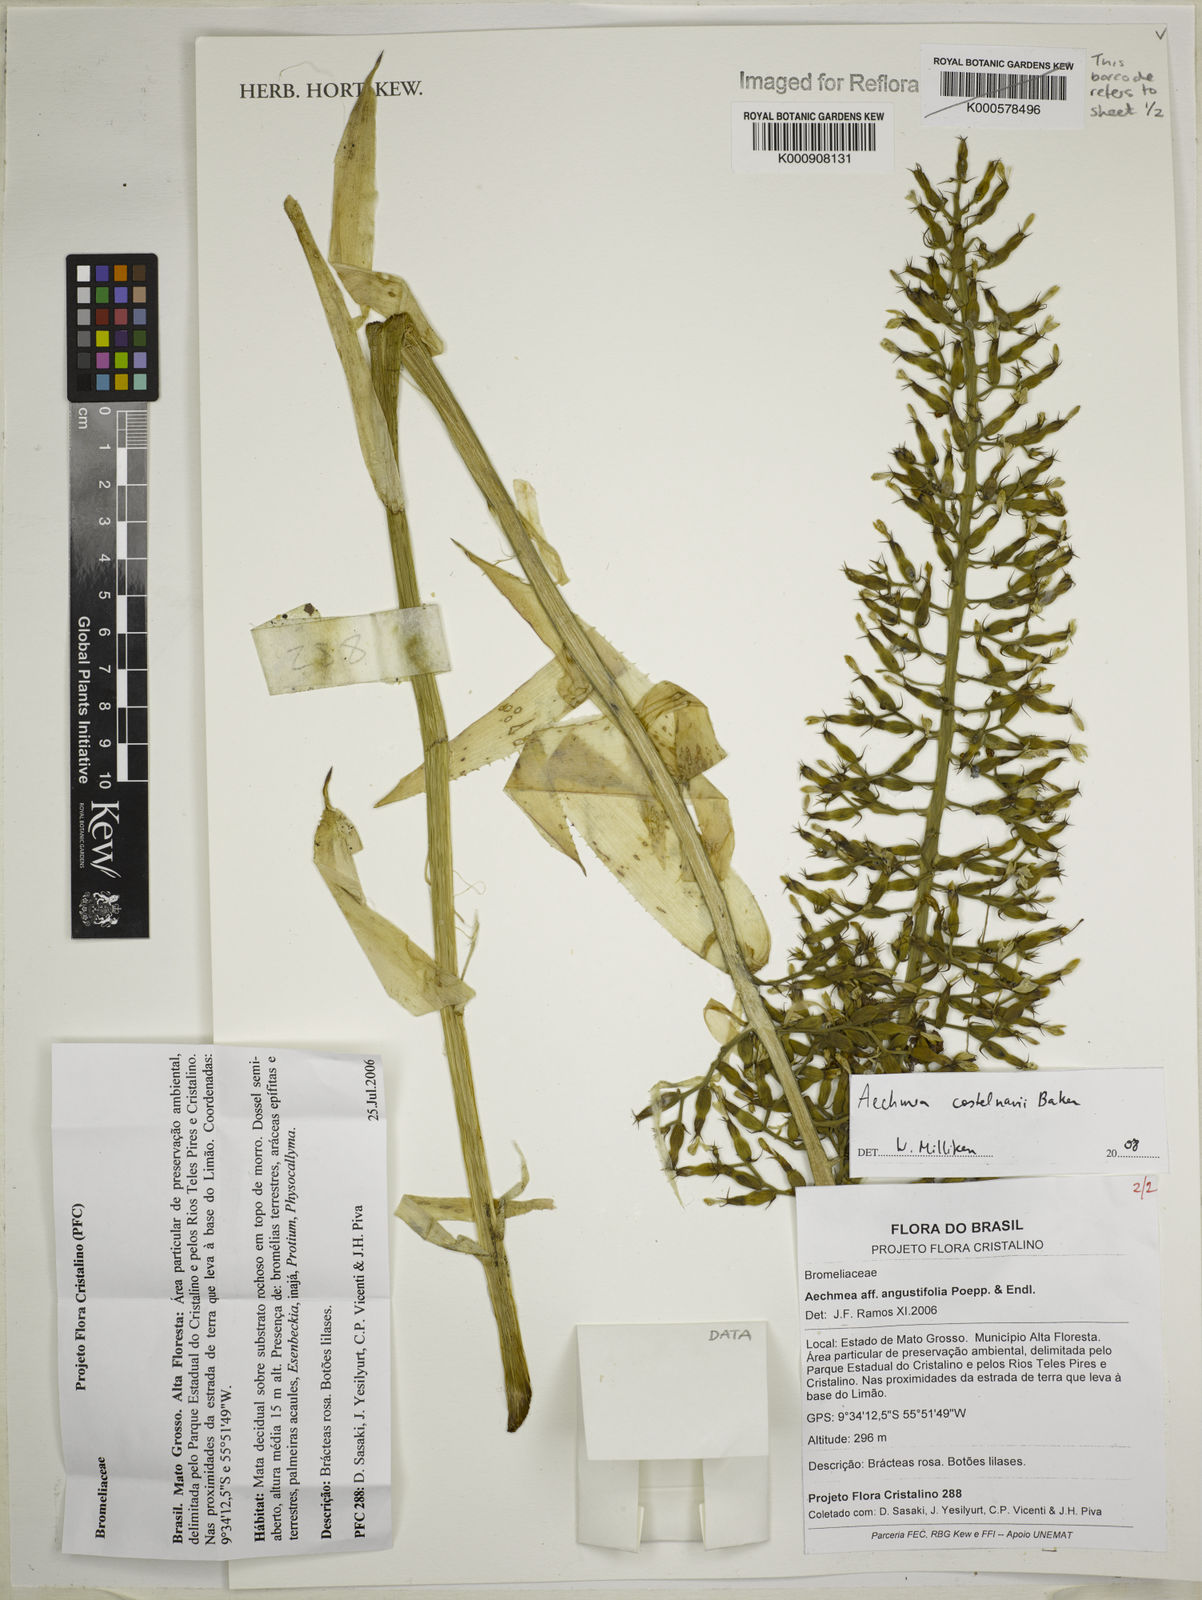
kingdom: Plantae
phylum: Tracheophyta
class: Liliopsida
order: Poales
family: Bromeliaceae
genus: Aechmea
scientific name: Aechmea castelnavii
